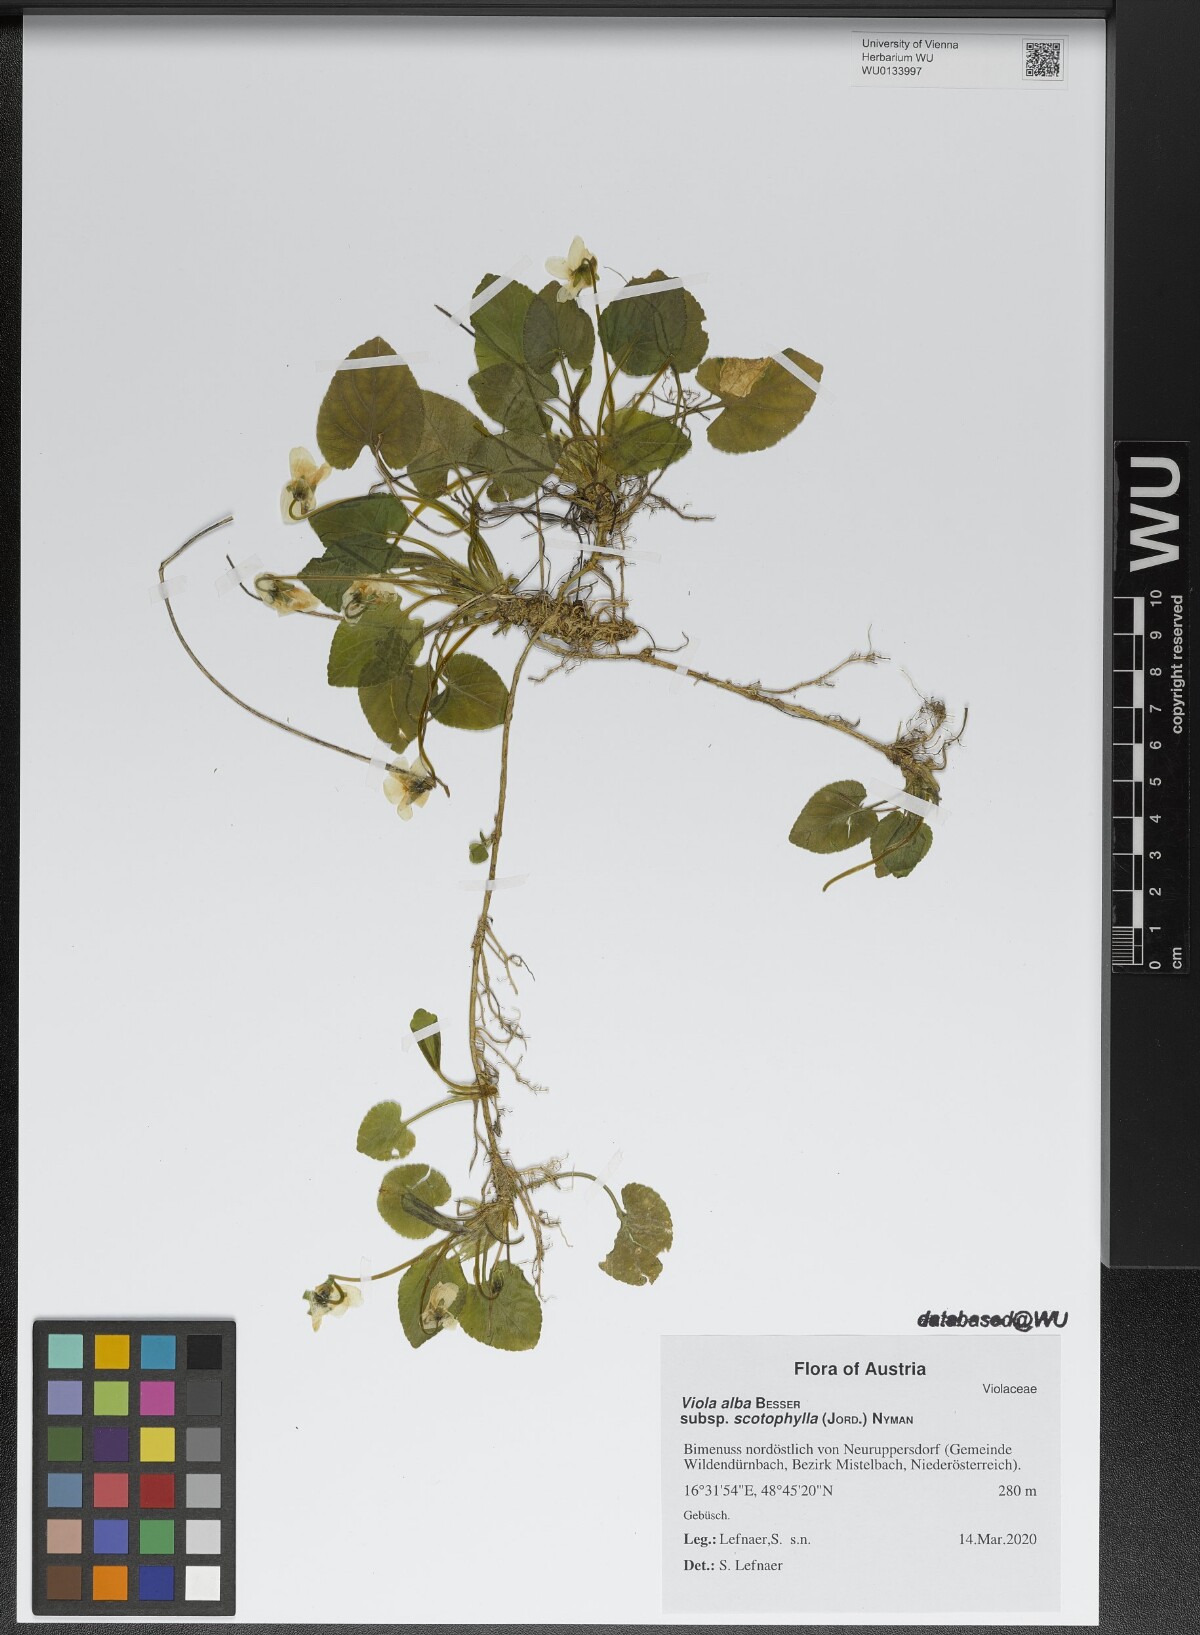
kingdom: Plantae
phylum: Tracheophyta
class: Magnoliopsida
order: Malpighiales
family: Violaceae
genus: Viola
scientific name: Viola alba
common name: White violet
